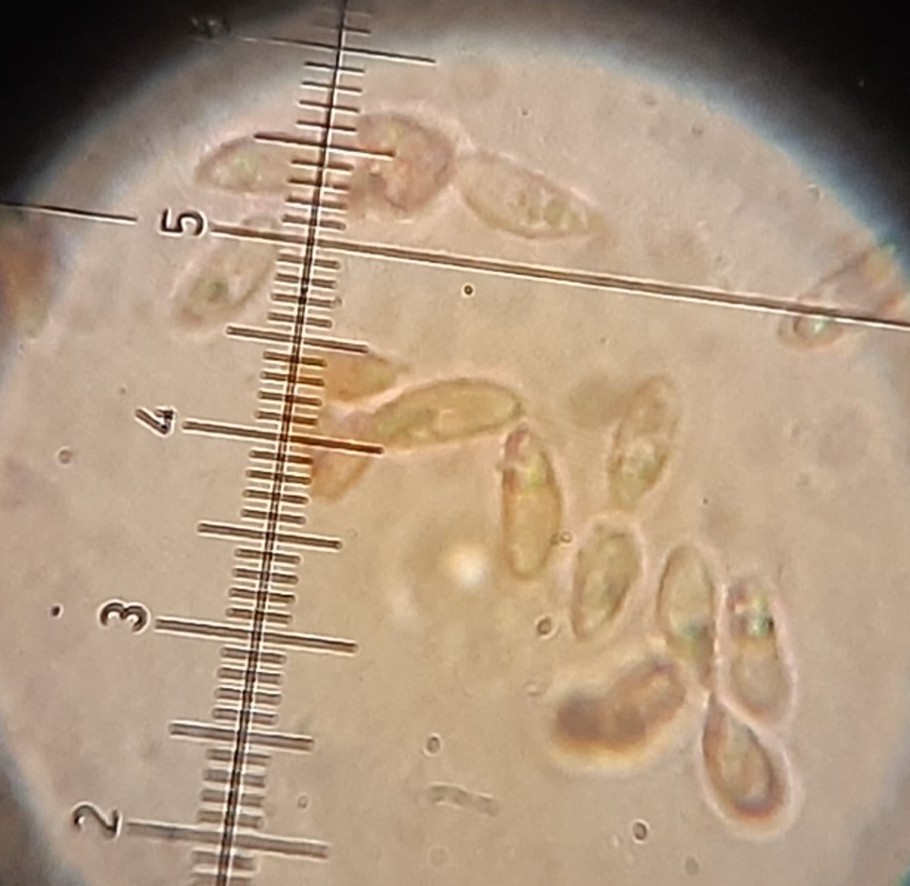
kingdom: Fungi
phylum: Basidiomycota
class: Agaricomycetes
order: Agaricales
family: Crepidotaceae
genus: Crepidotus
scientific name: Crepidotus epibryus
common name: førne-muslingesvamp
